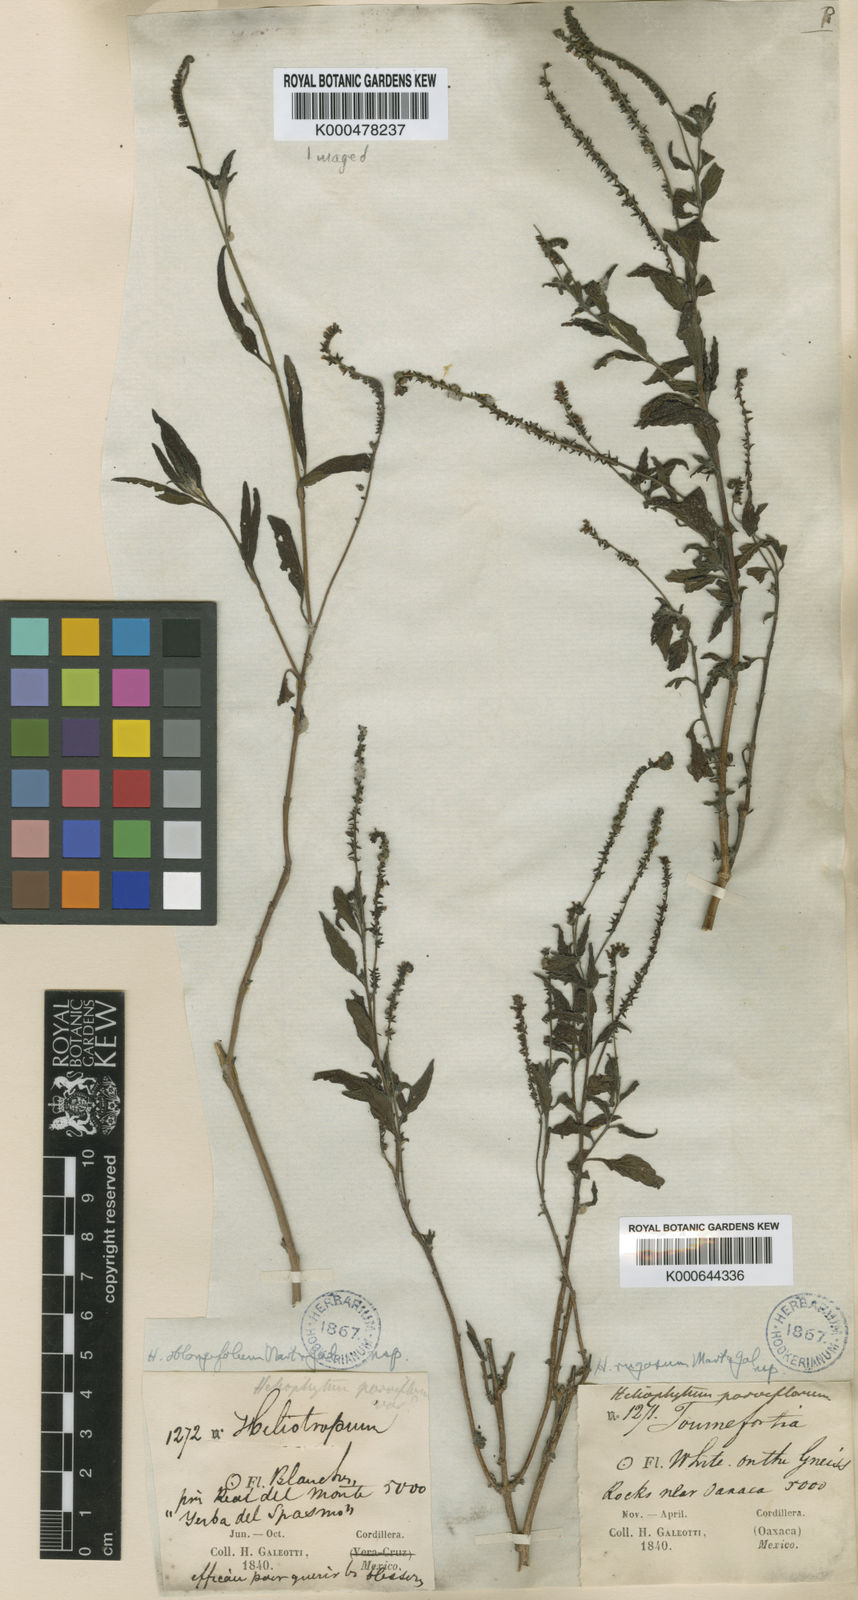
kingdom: Plantae
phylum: Tracheophyta
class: Magnoliopsida
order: Boraginales
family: Heliotropiaceae
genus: Heliotropium
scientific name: Heliotropium angiospermum
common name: Eye bright
